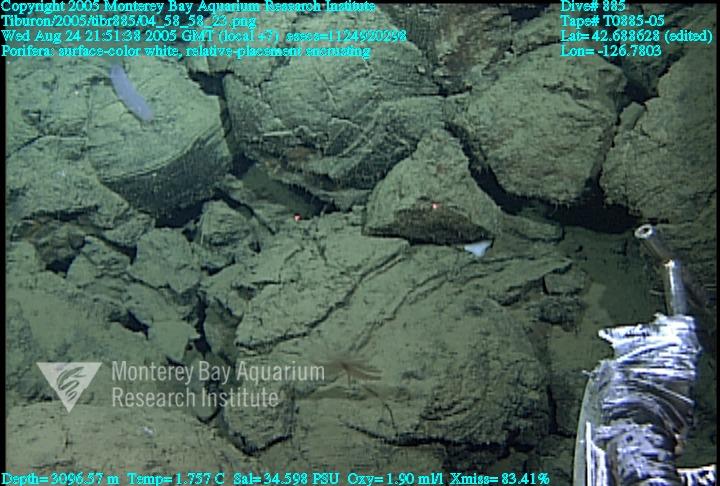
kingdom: Animalia
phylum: Porifera
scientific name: Porifera
